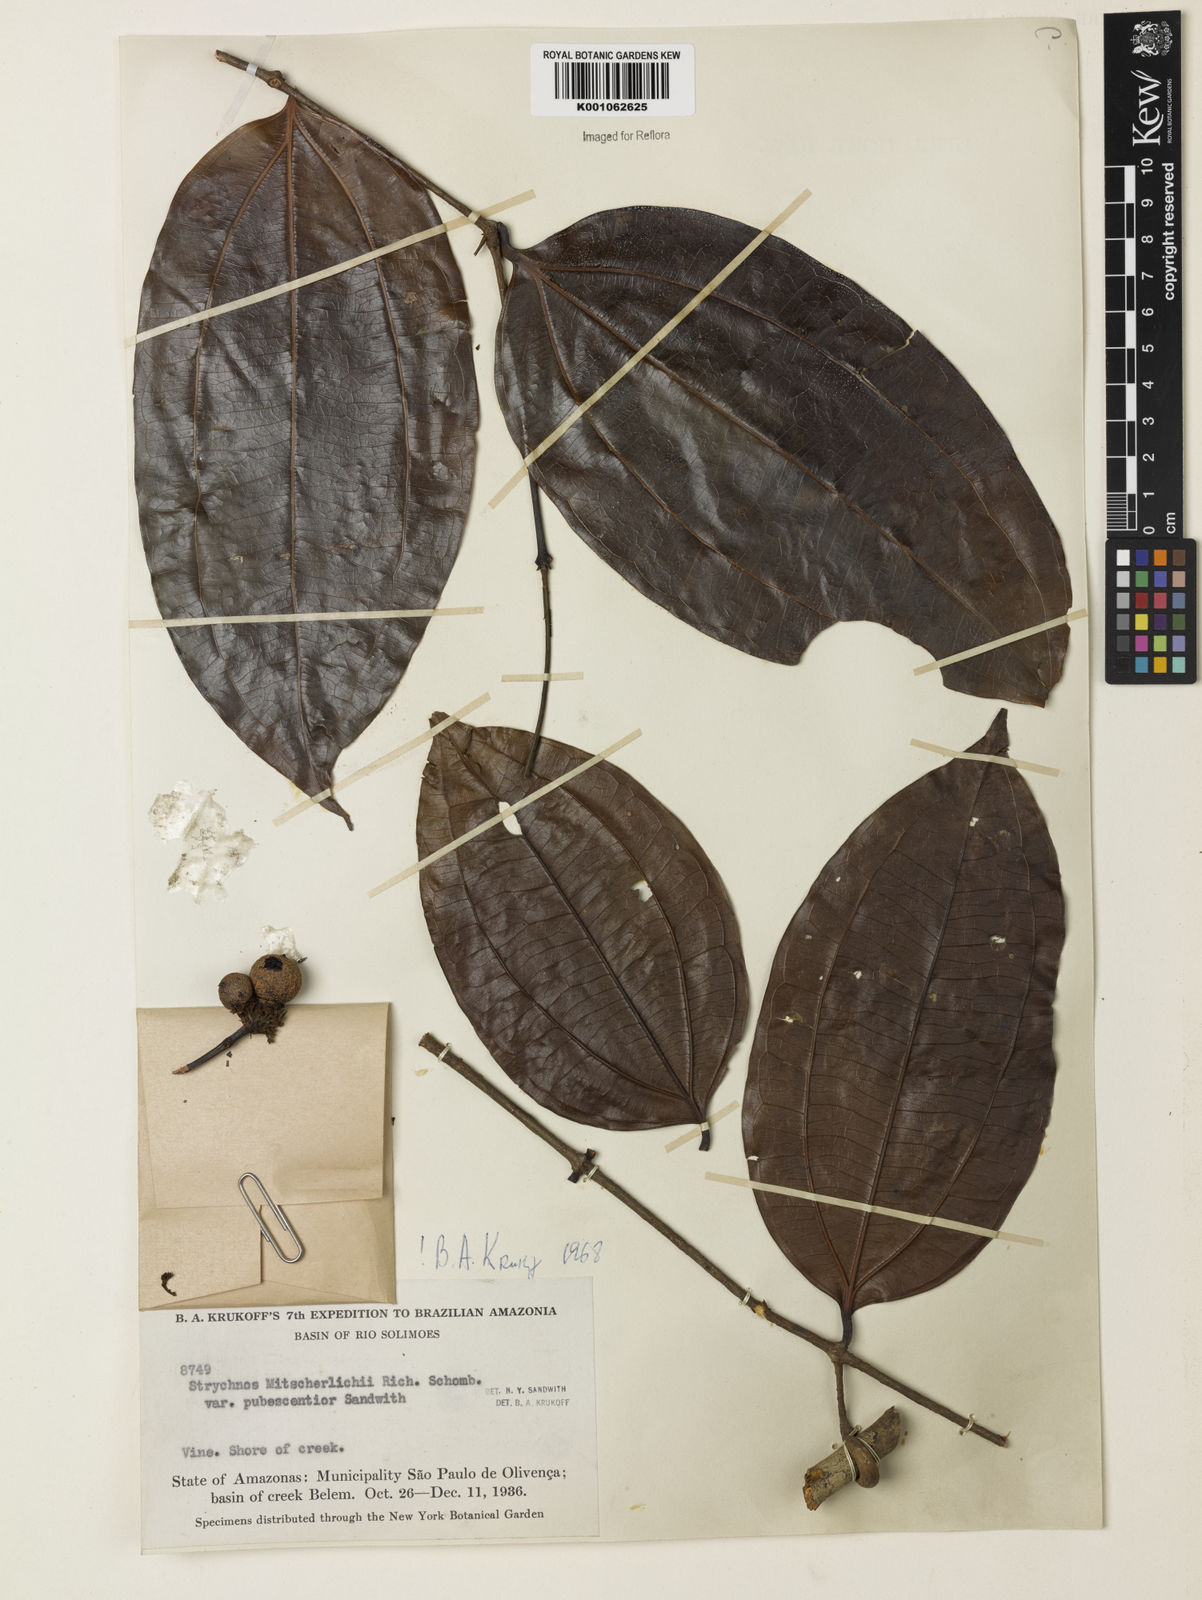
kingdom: Plantae
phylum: Tracheophyta
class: Magnoliopsida
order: Gentianales
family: Loganiaceae
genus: Strychnos
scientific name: Strychnos mitscherlichii
